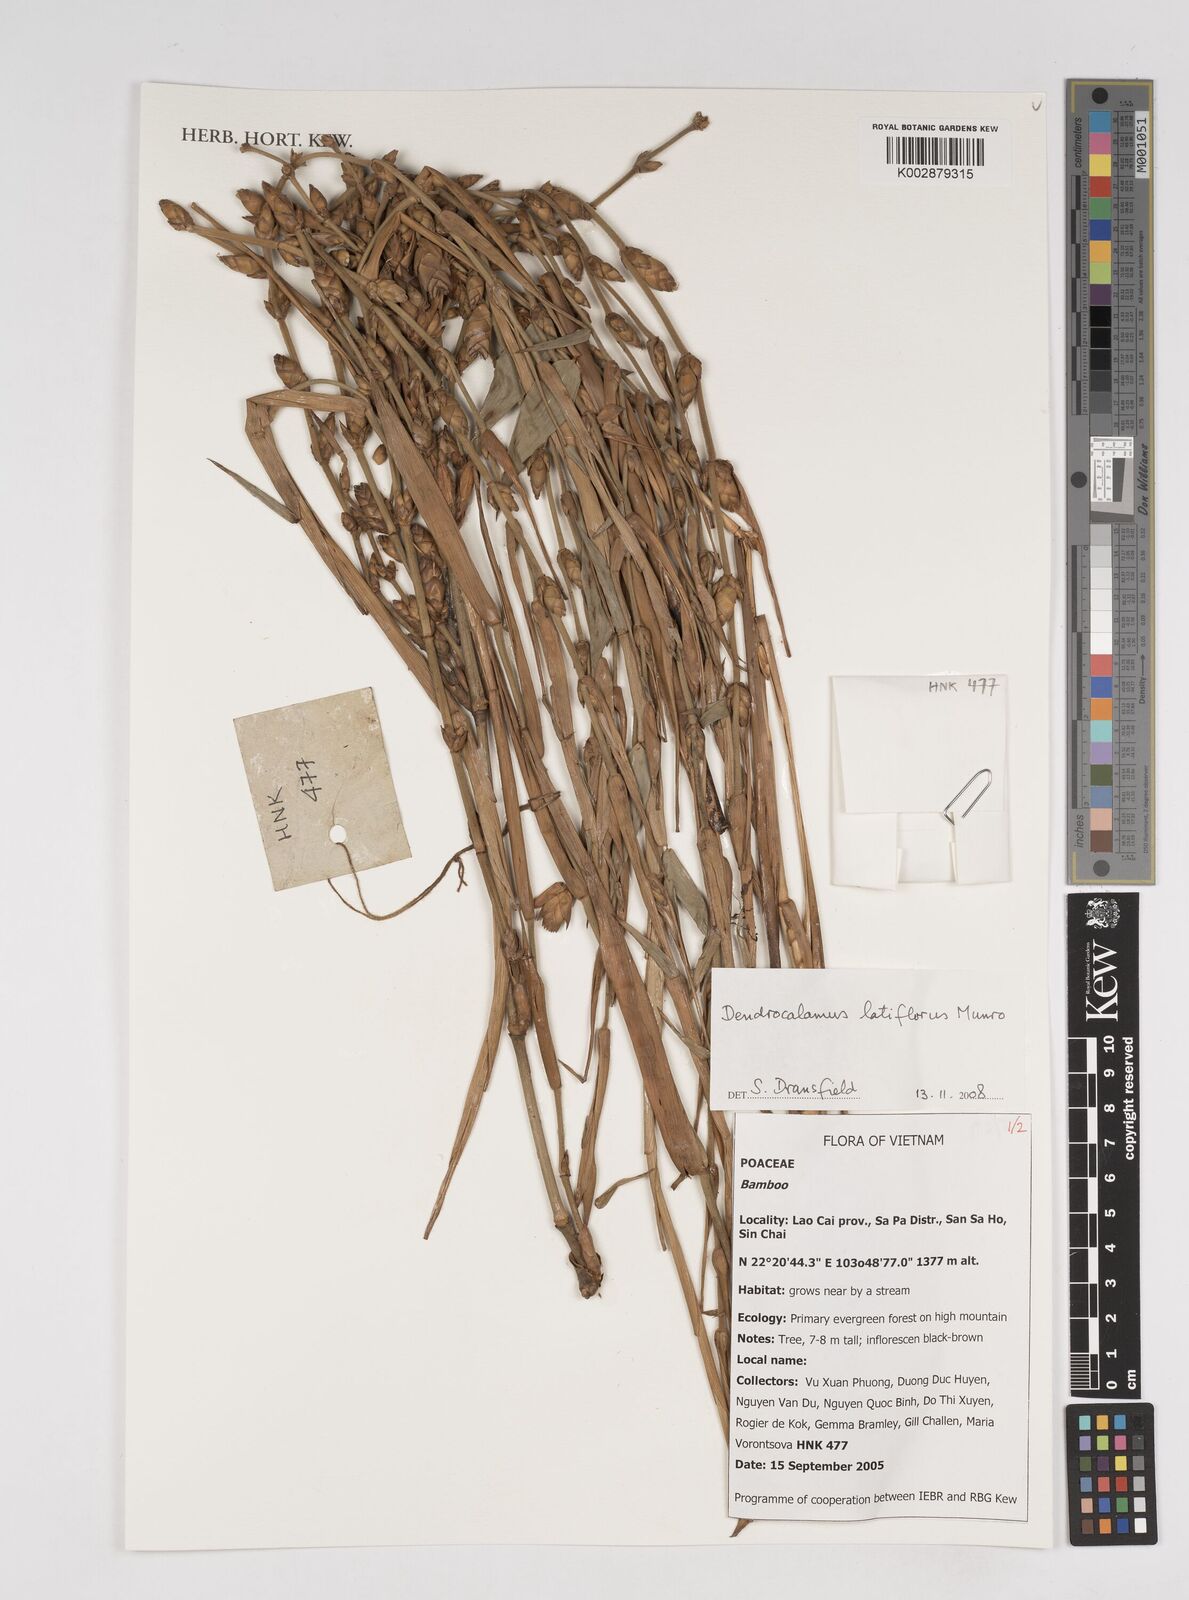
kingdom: Plantae
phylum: Tracheophyta
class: Liliopsida
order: Poales
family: Poaceae
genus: Dendrocalamus
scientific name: Dendrocalamus latiflorus
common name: Giant bamboo
